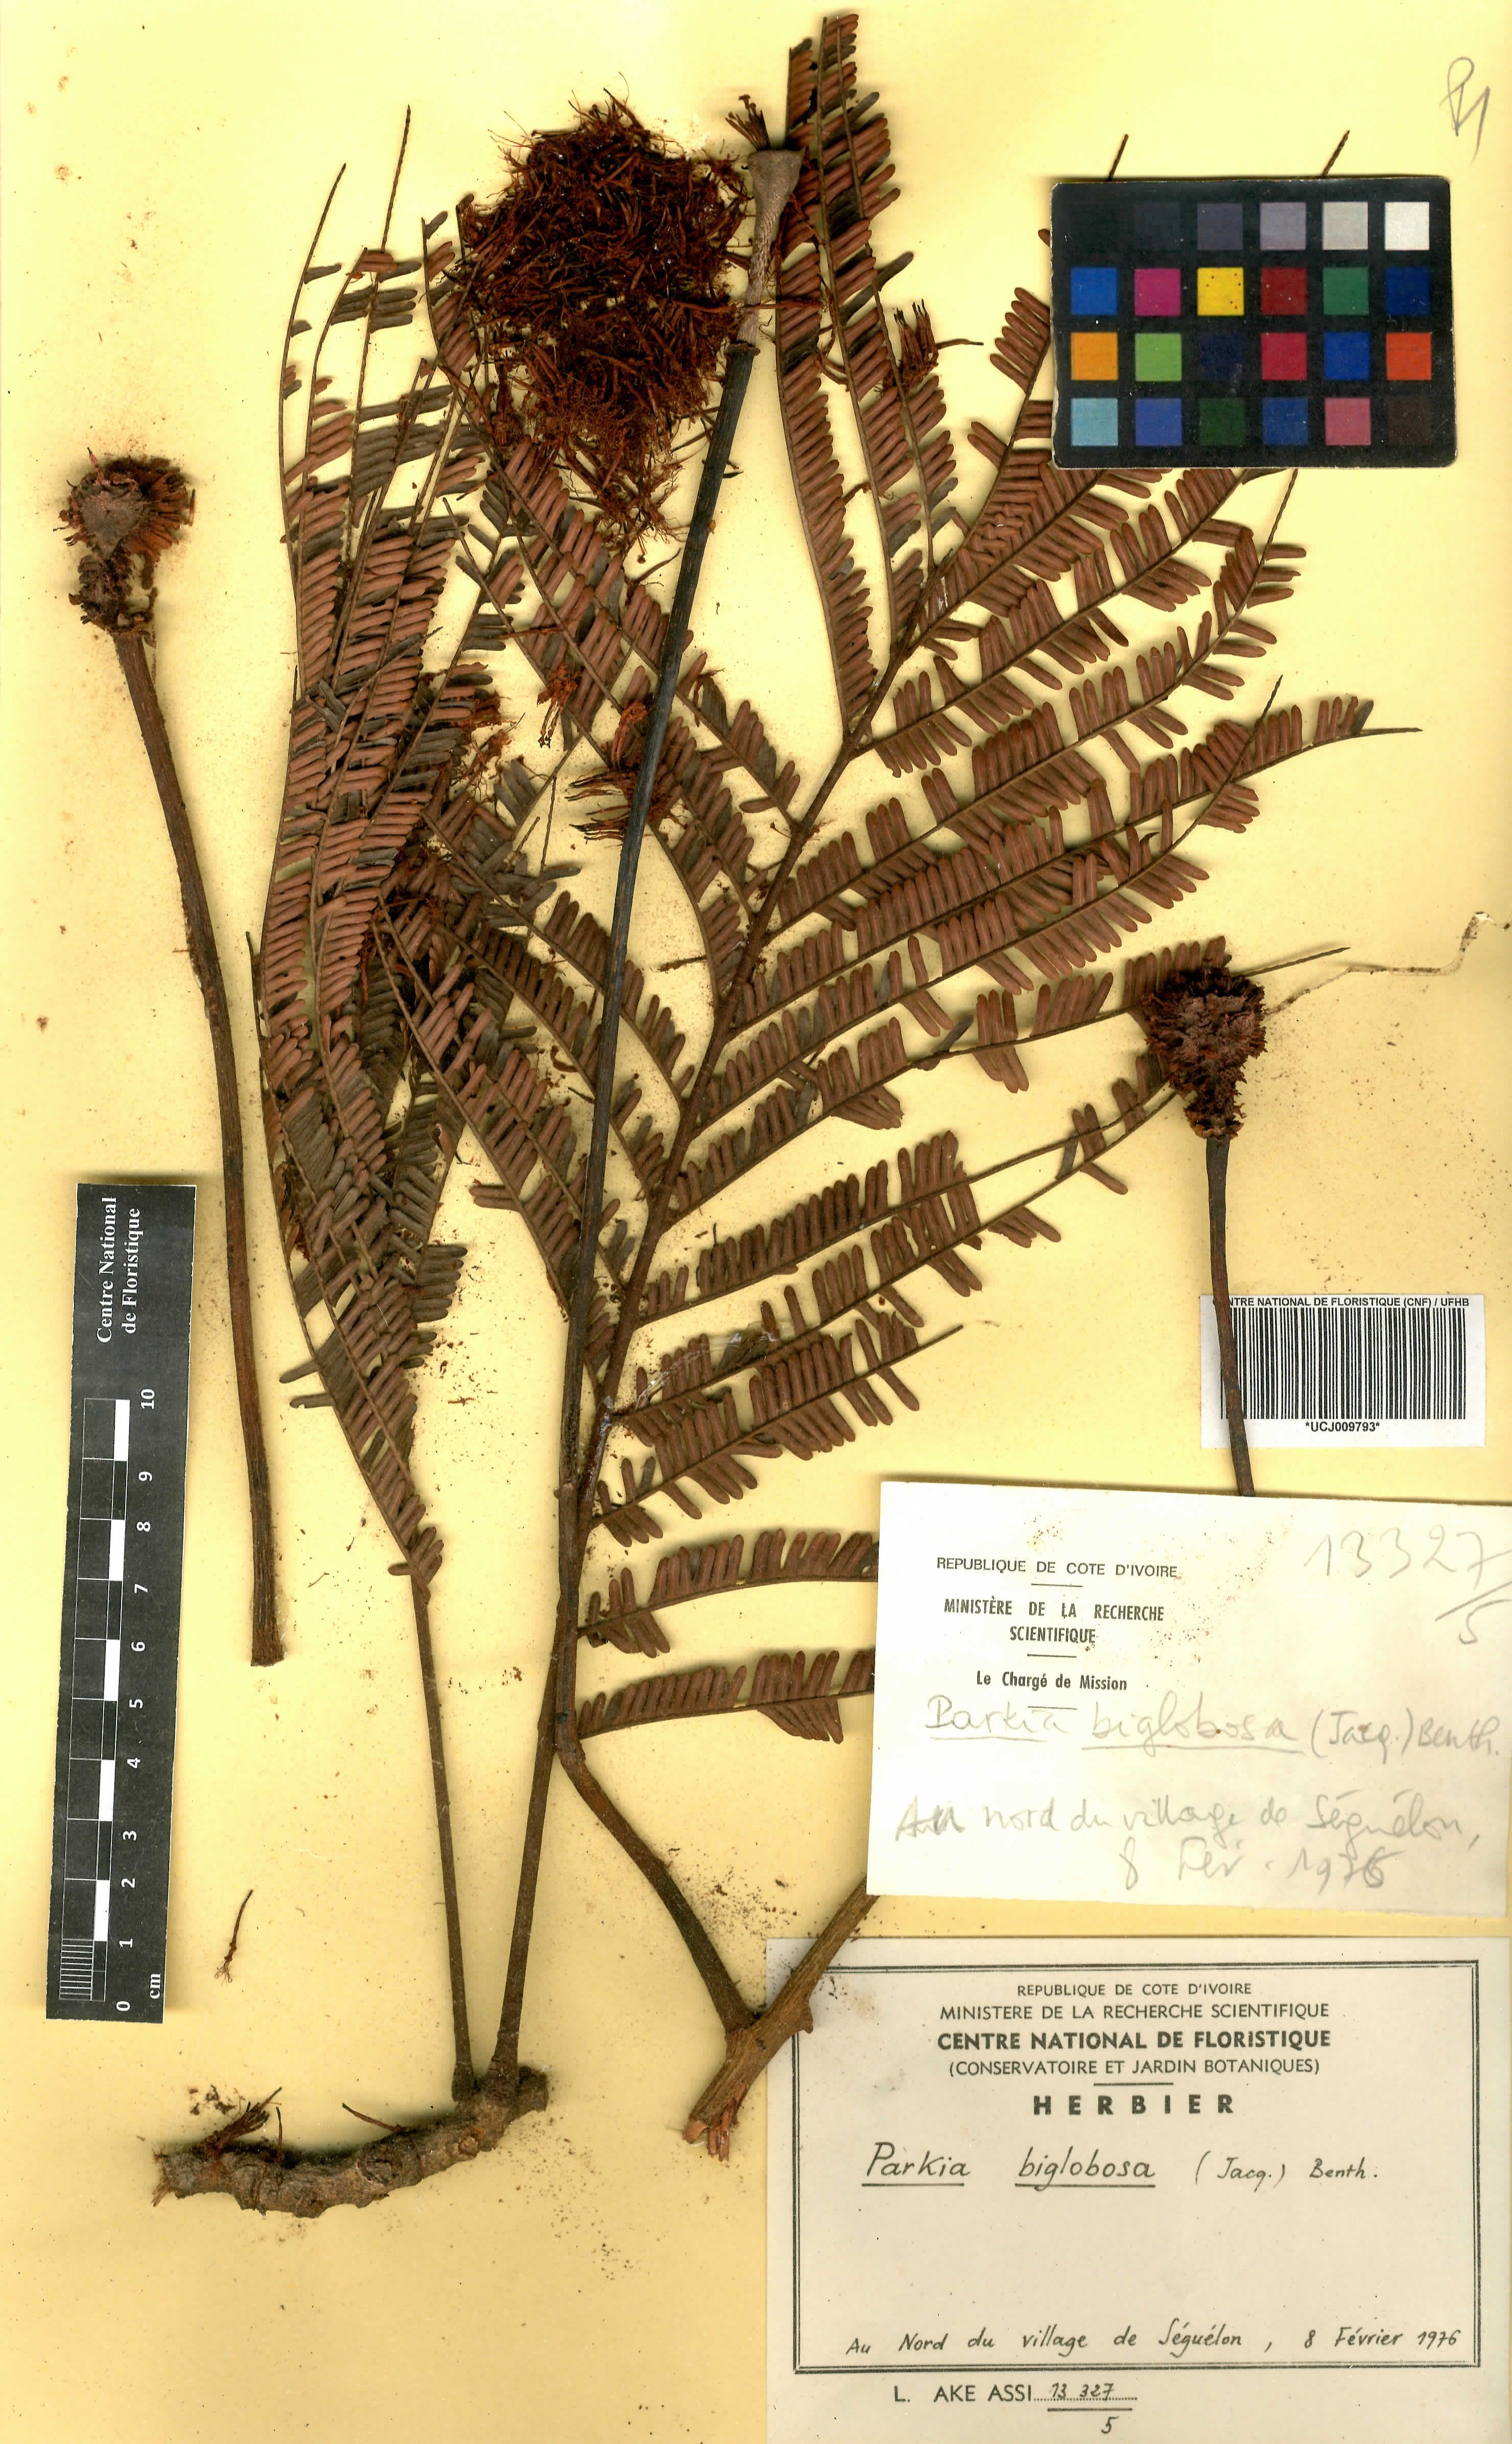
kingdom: Plantae
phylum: Tracheophyta
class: Magnoliopsida
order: Fabales
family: Fabaceae
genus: Parkia
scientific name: Parkia timoriana
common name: Legume
